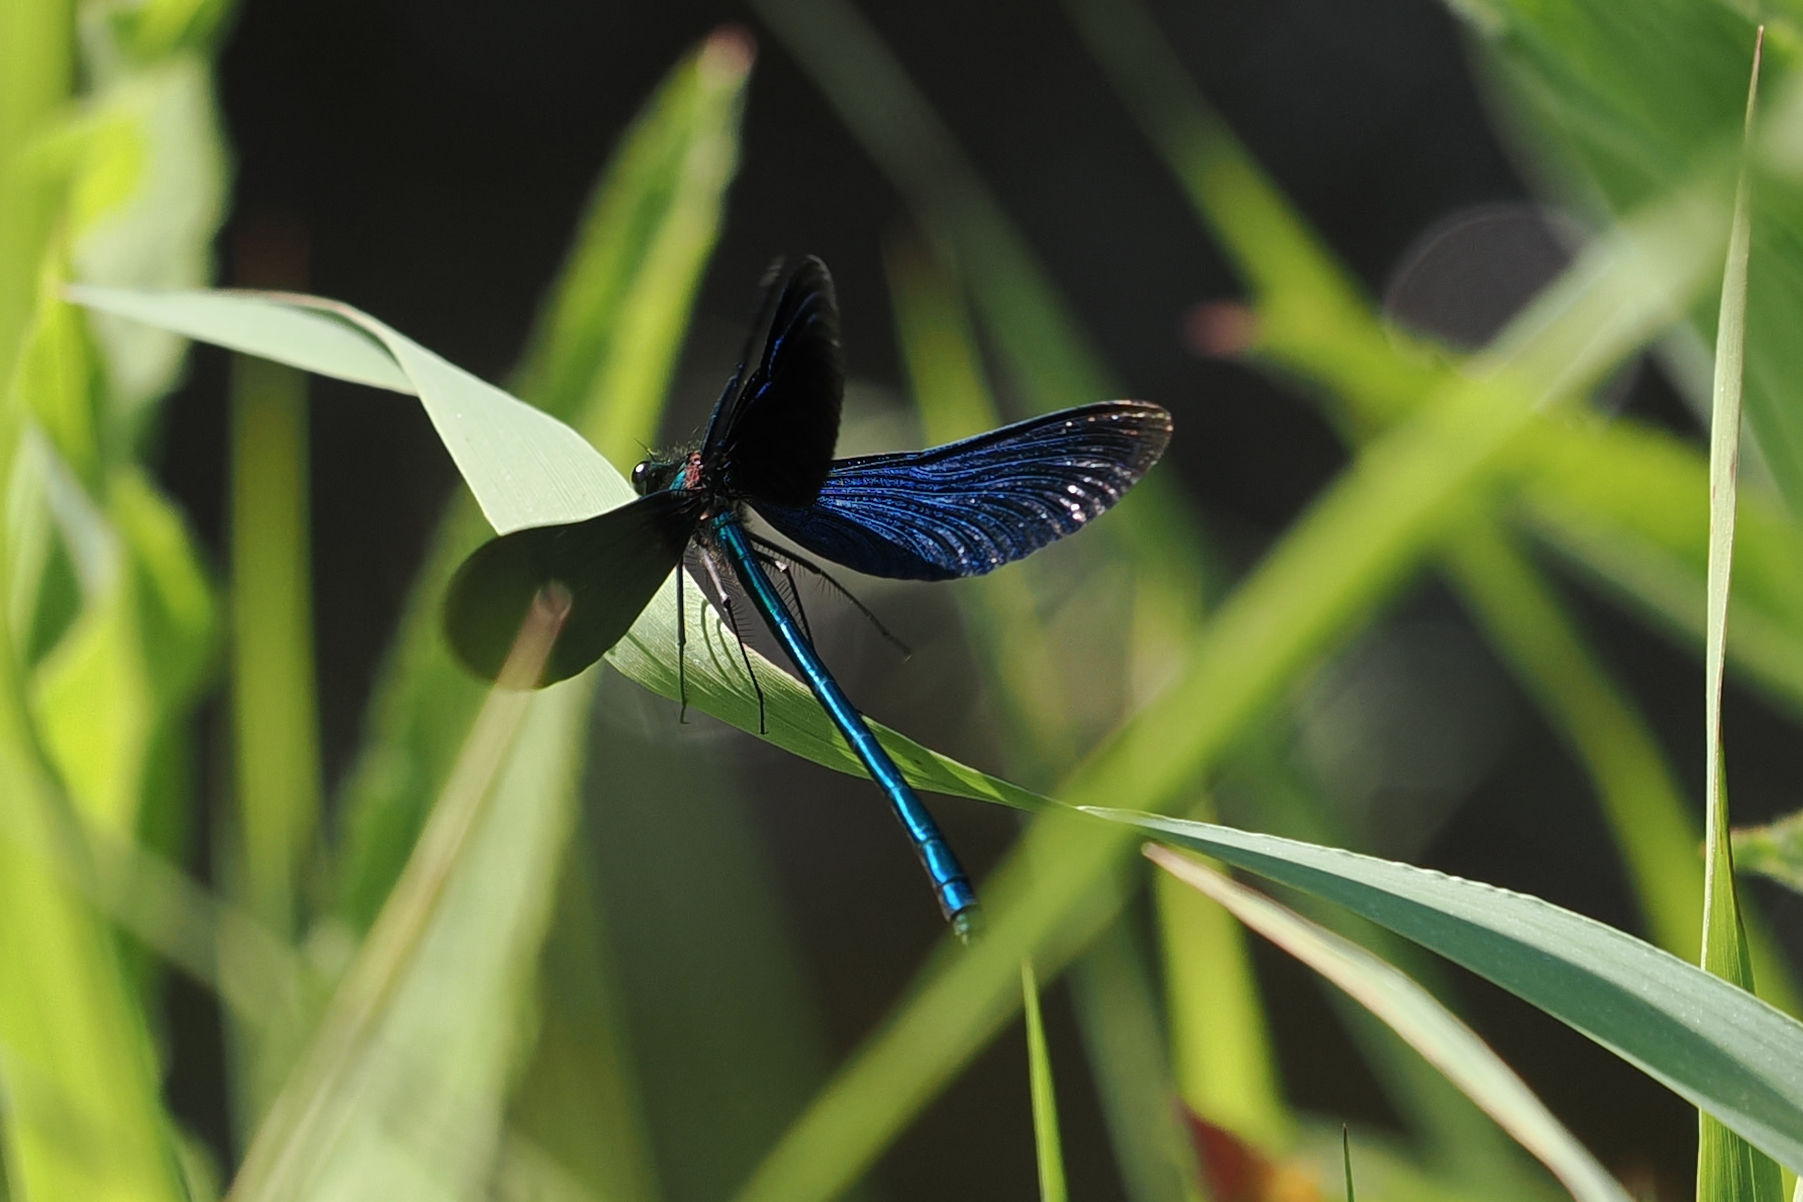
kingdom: Animalia
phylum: Arthropoda
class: Insecta
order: Odonata
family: Calopterygidae
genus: Calopteryx
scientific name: Calopteryx virgo
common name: Blåvinget pragtvandnymfe
